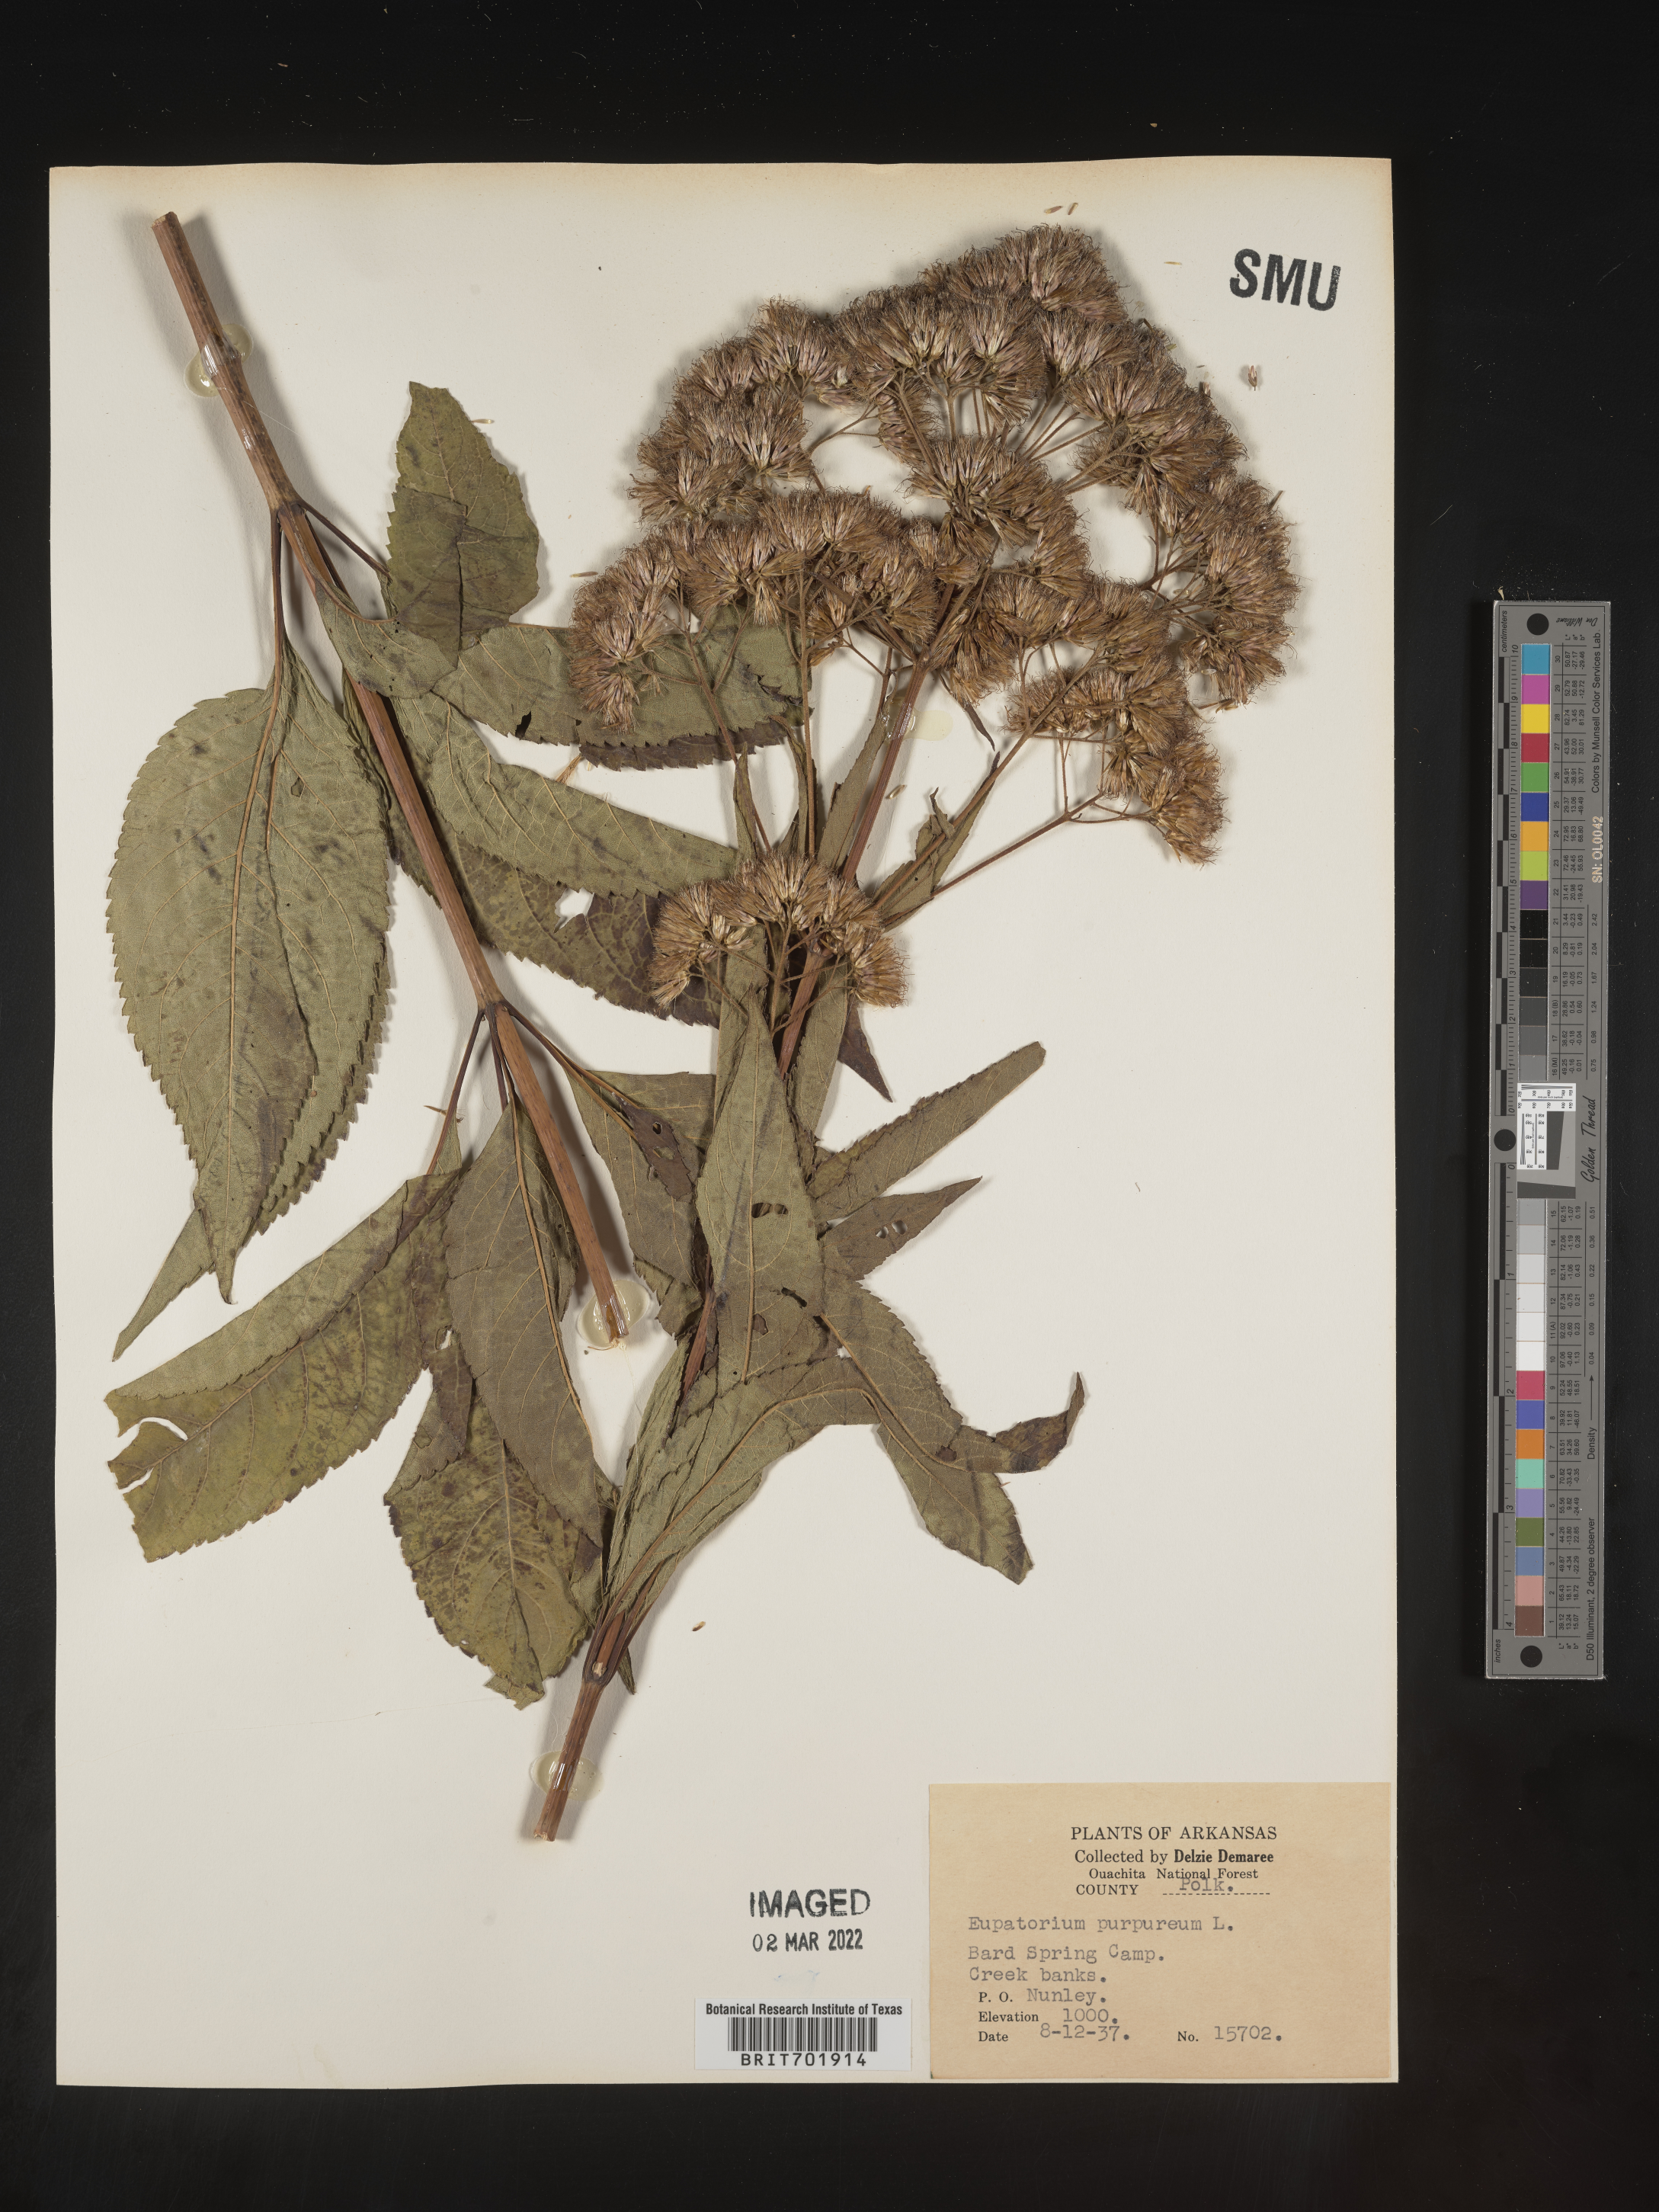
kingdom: Plantae
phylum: Tracheophyta
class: Magnoliopsida
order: Asterales
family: Asteraceae
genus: Eupatorium
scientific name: Eupatorium quaternum
